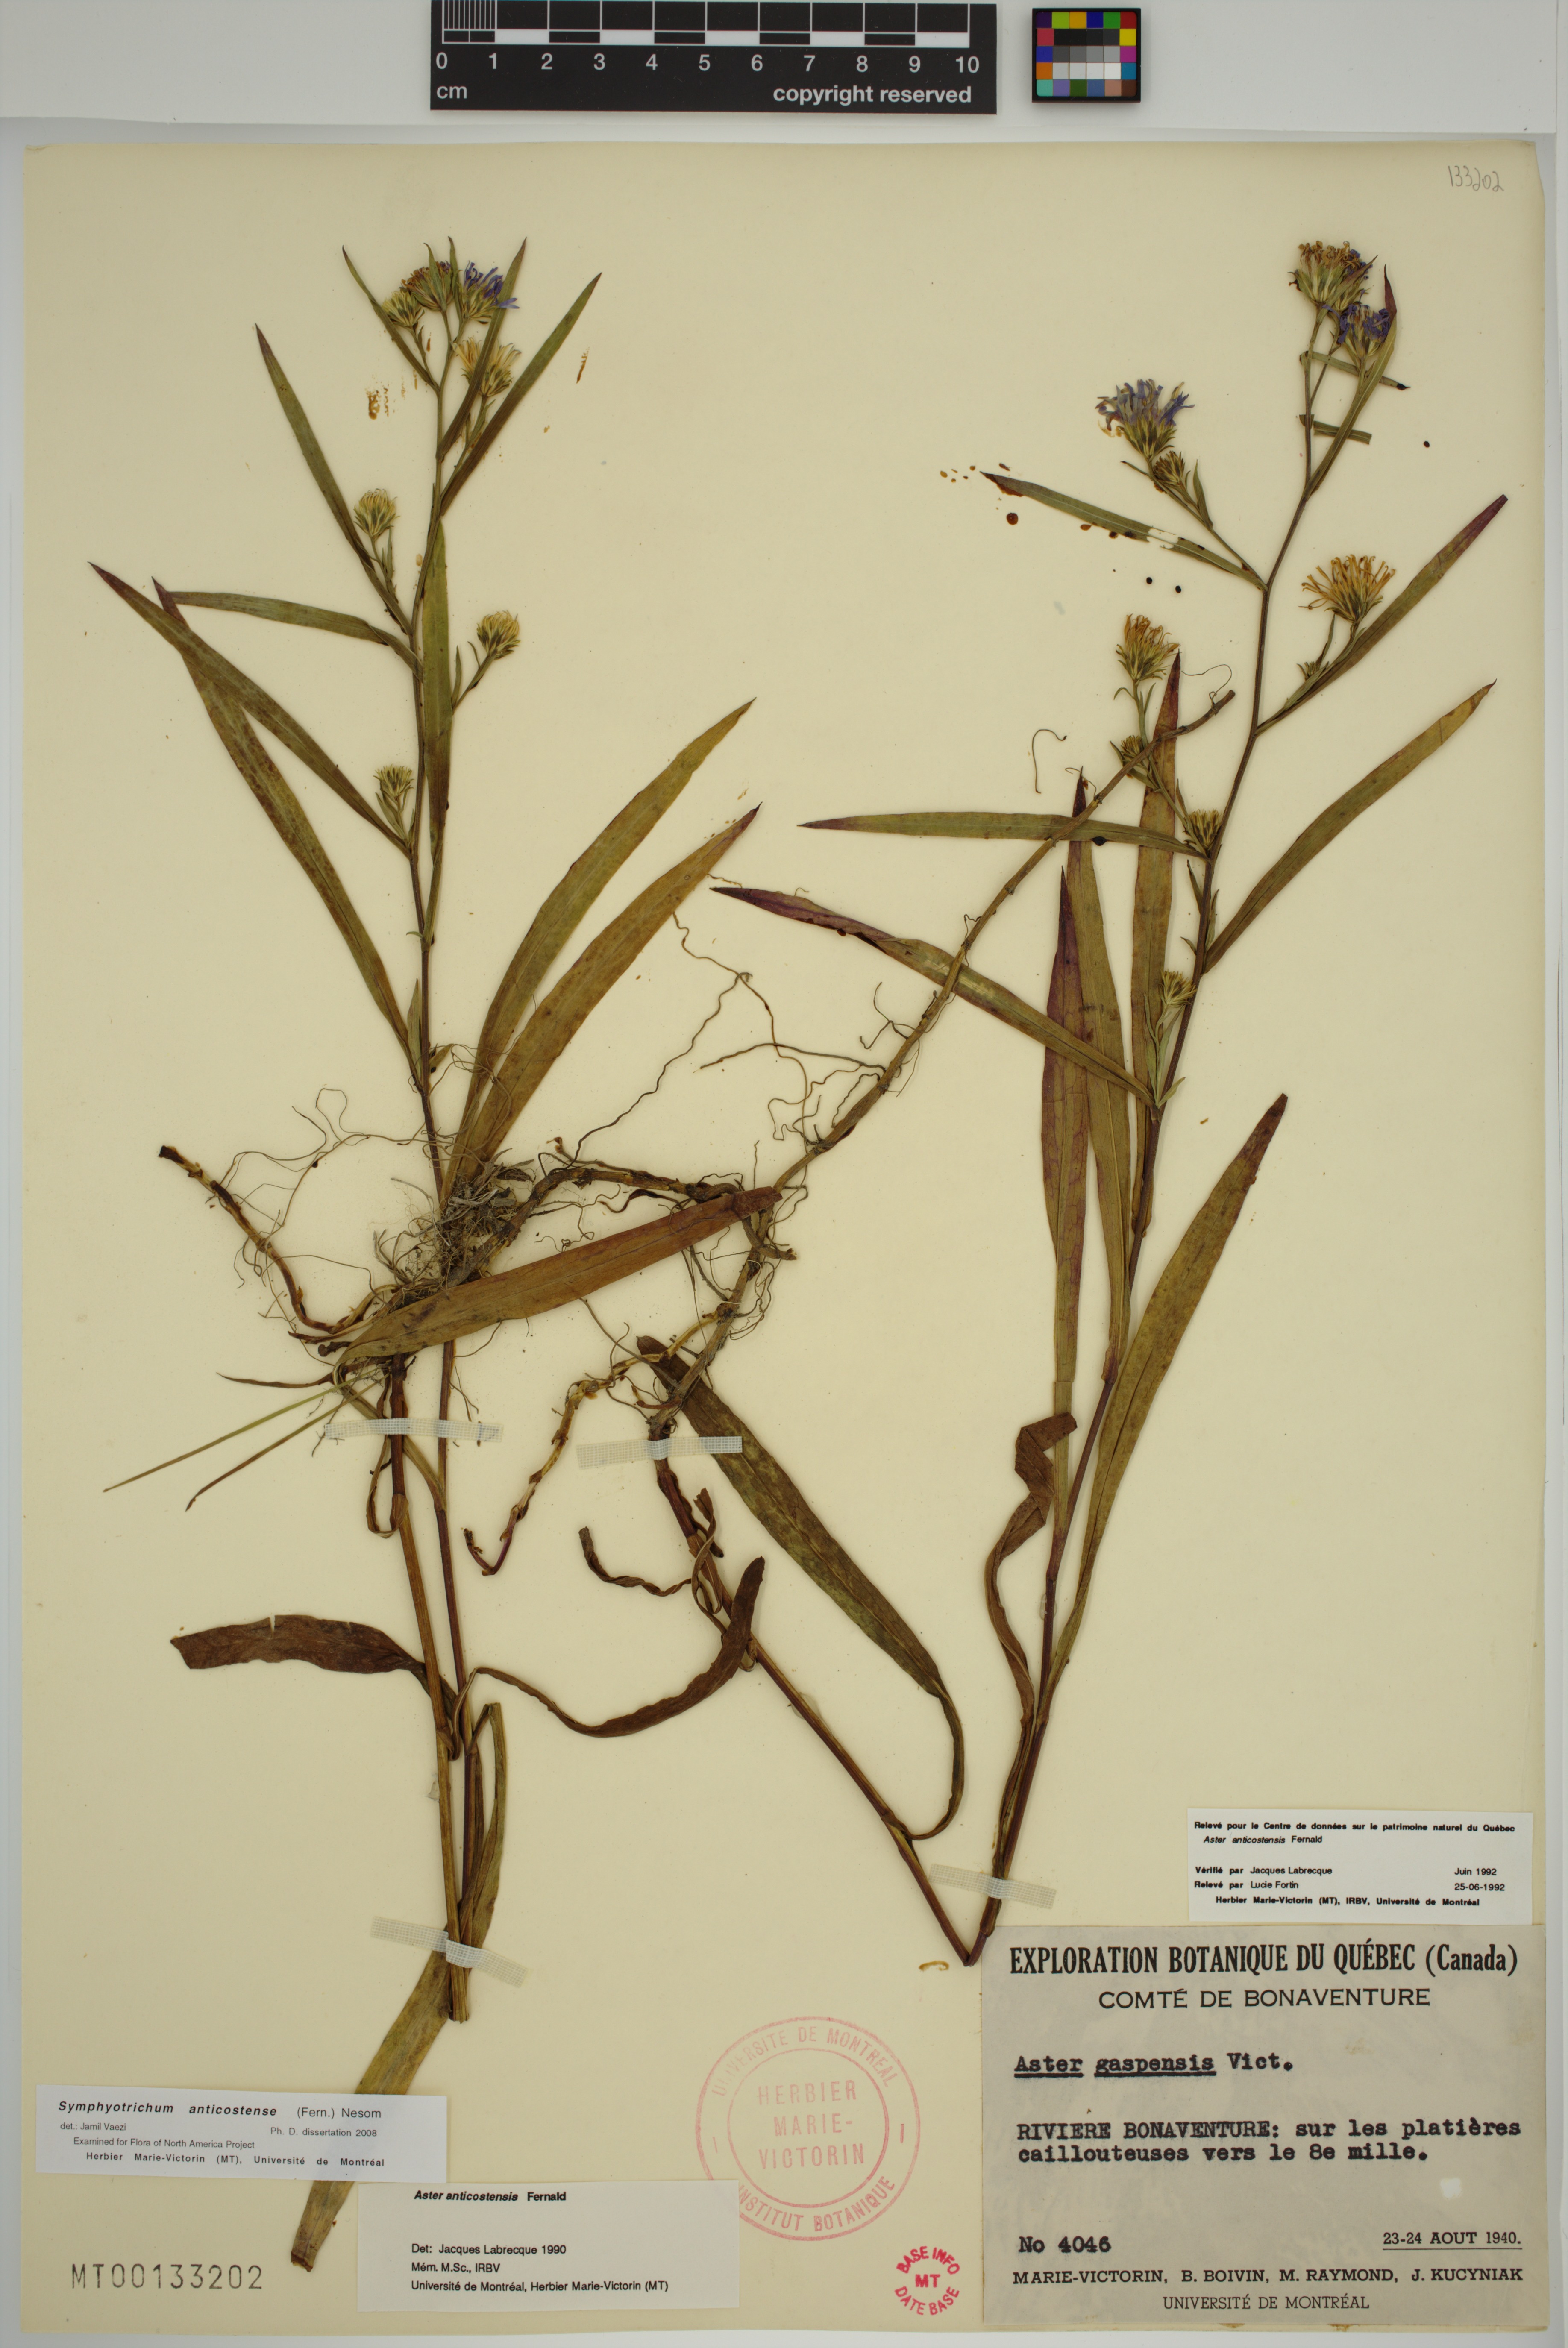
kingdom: Plantae
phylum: Tracheophyta
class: Magnoliopsida
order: Asterales
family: Asteraceae
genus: Symphyotrichum
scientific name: Symphyotrichum anticostense
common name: Anticosti island aster
